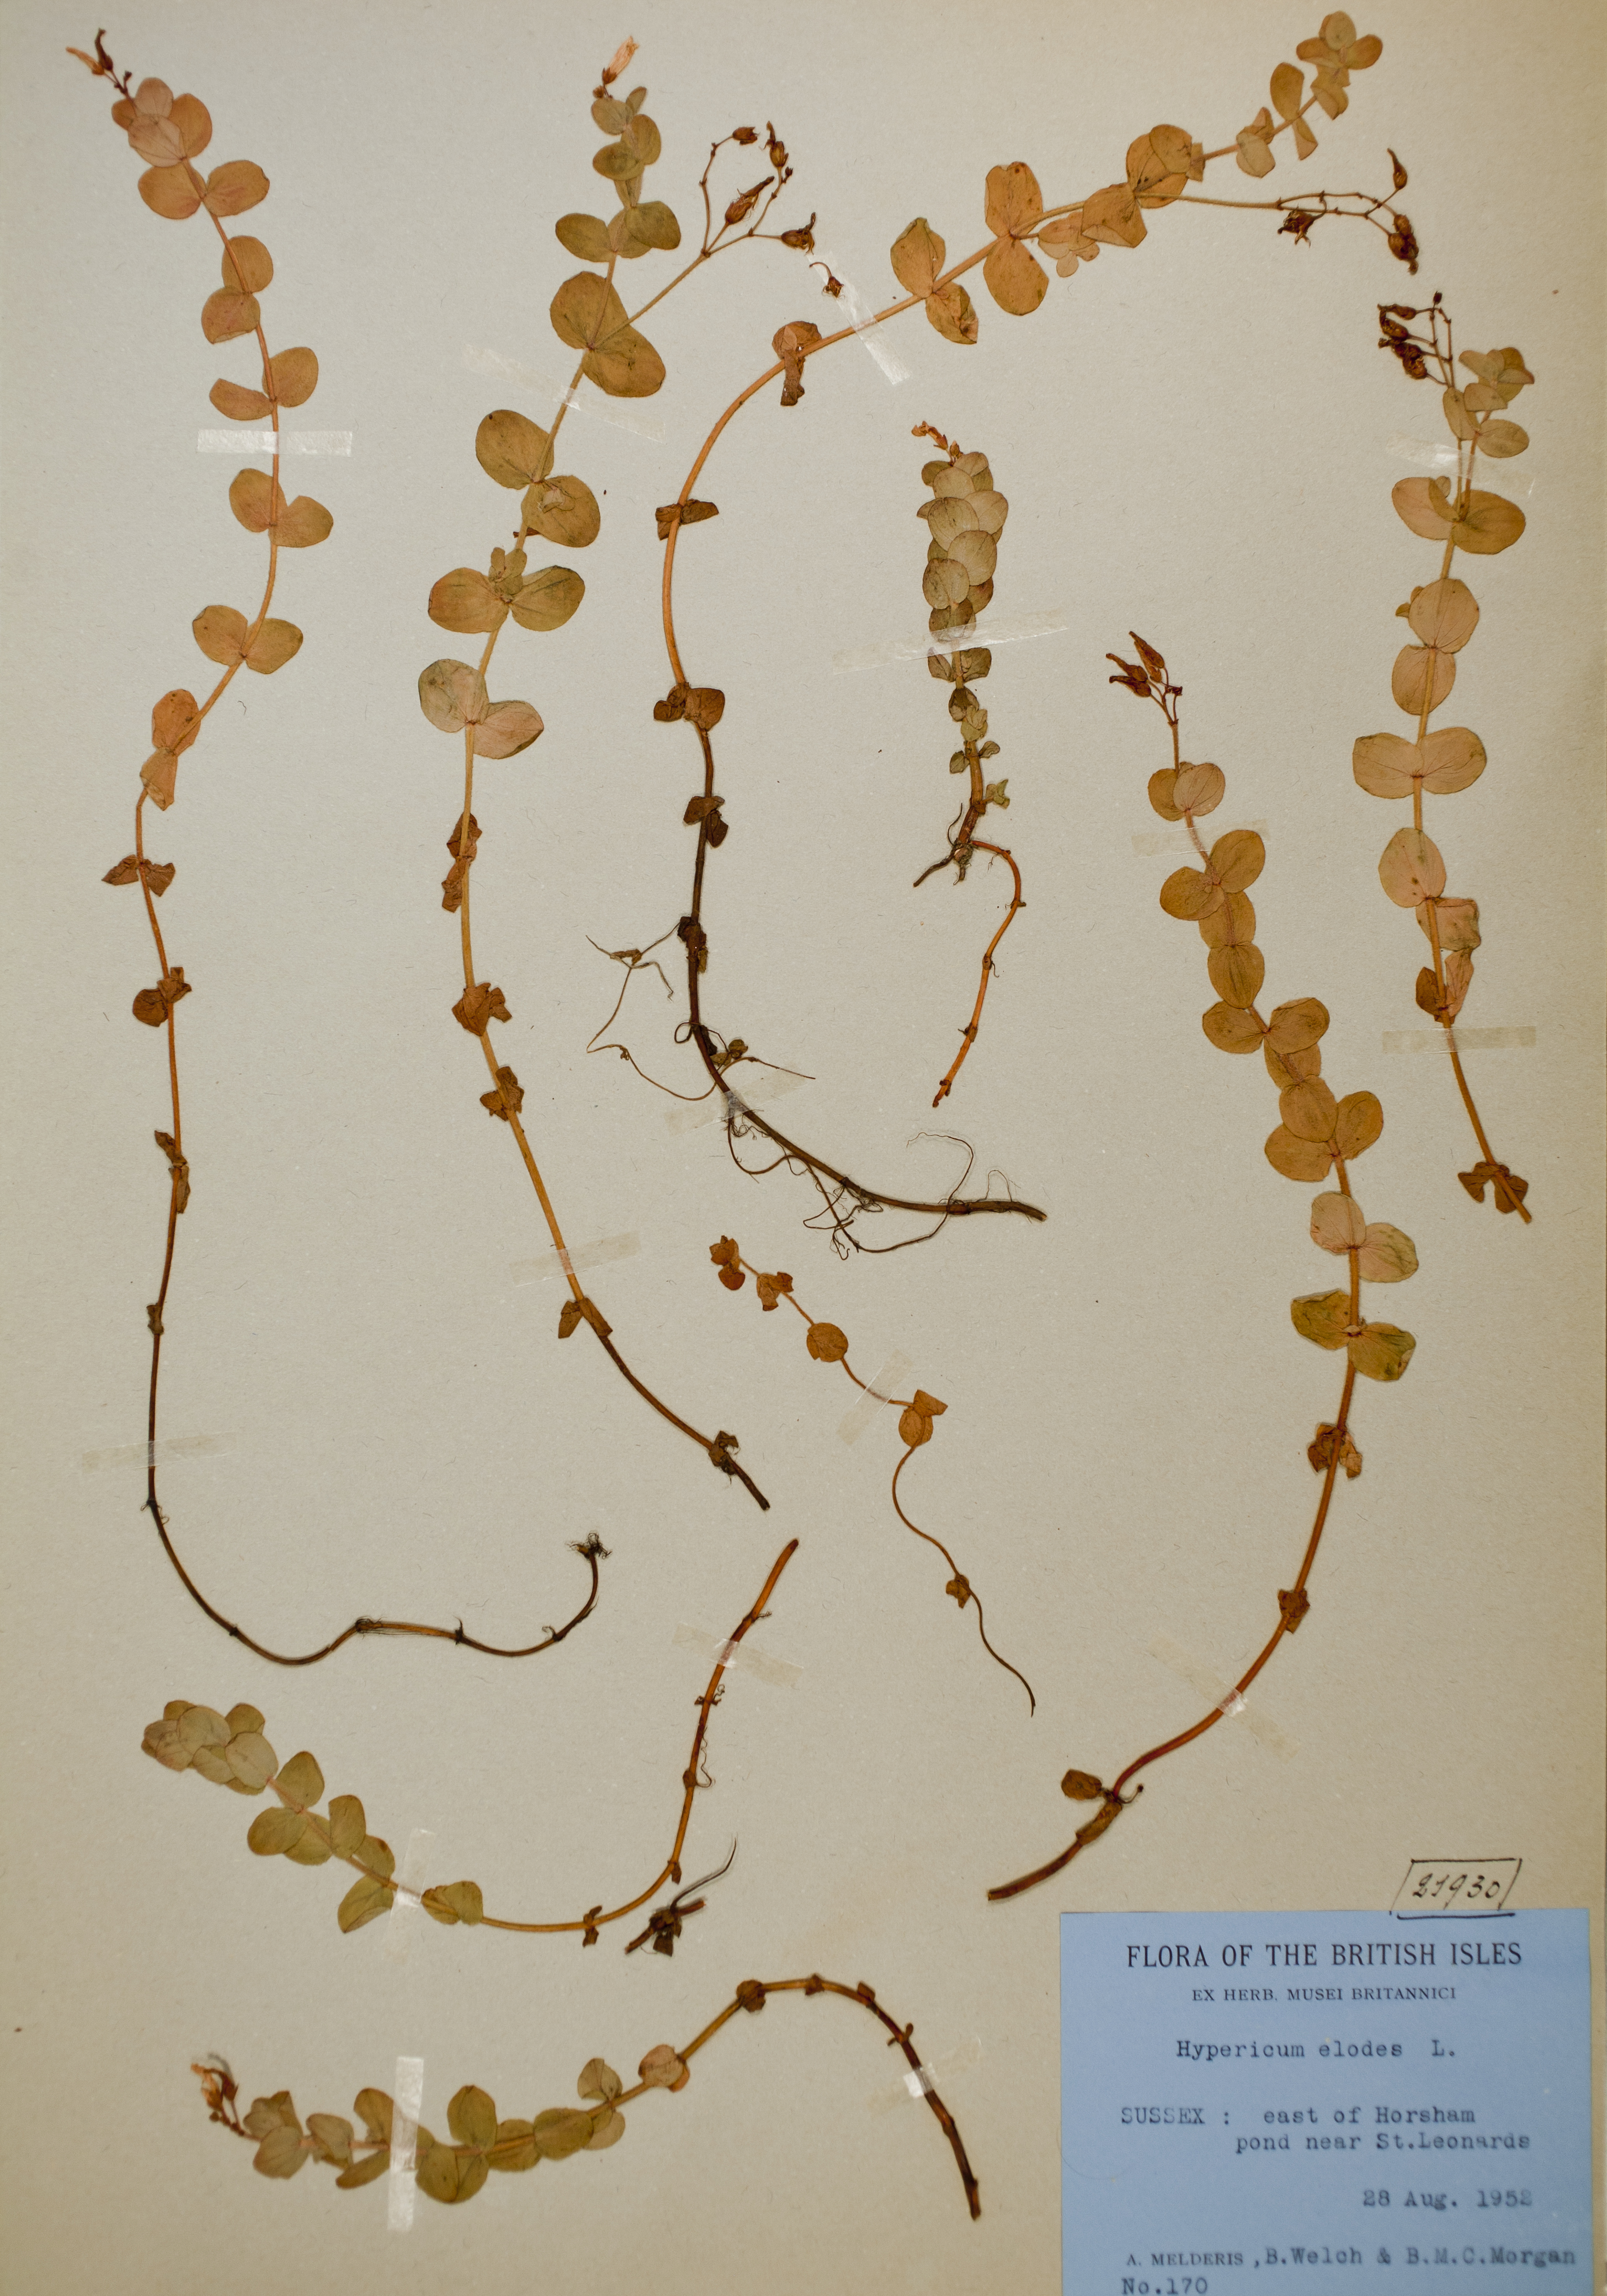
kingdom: Plantae
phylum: Tracheophyta
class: Magnoliopsida
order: Malpighiales
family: Hypericaceae
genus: Hypericum
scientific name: Hypericum elodes
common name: Marsh st. john's-wort
